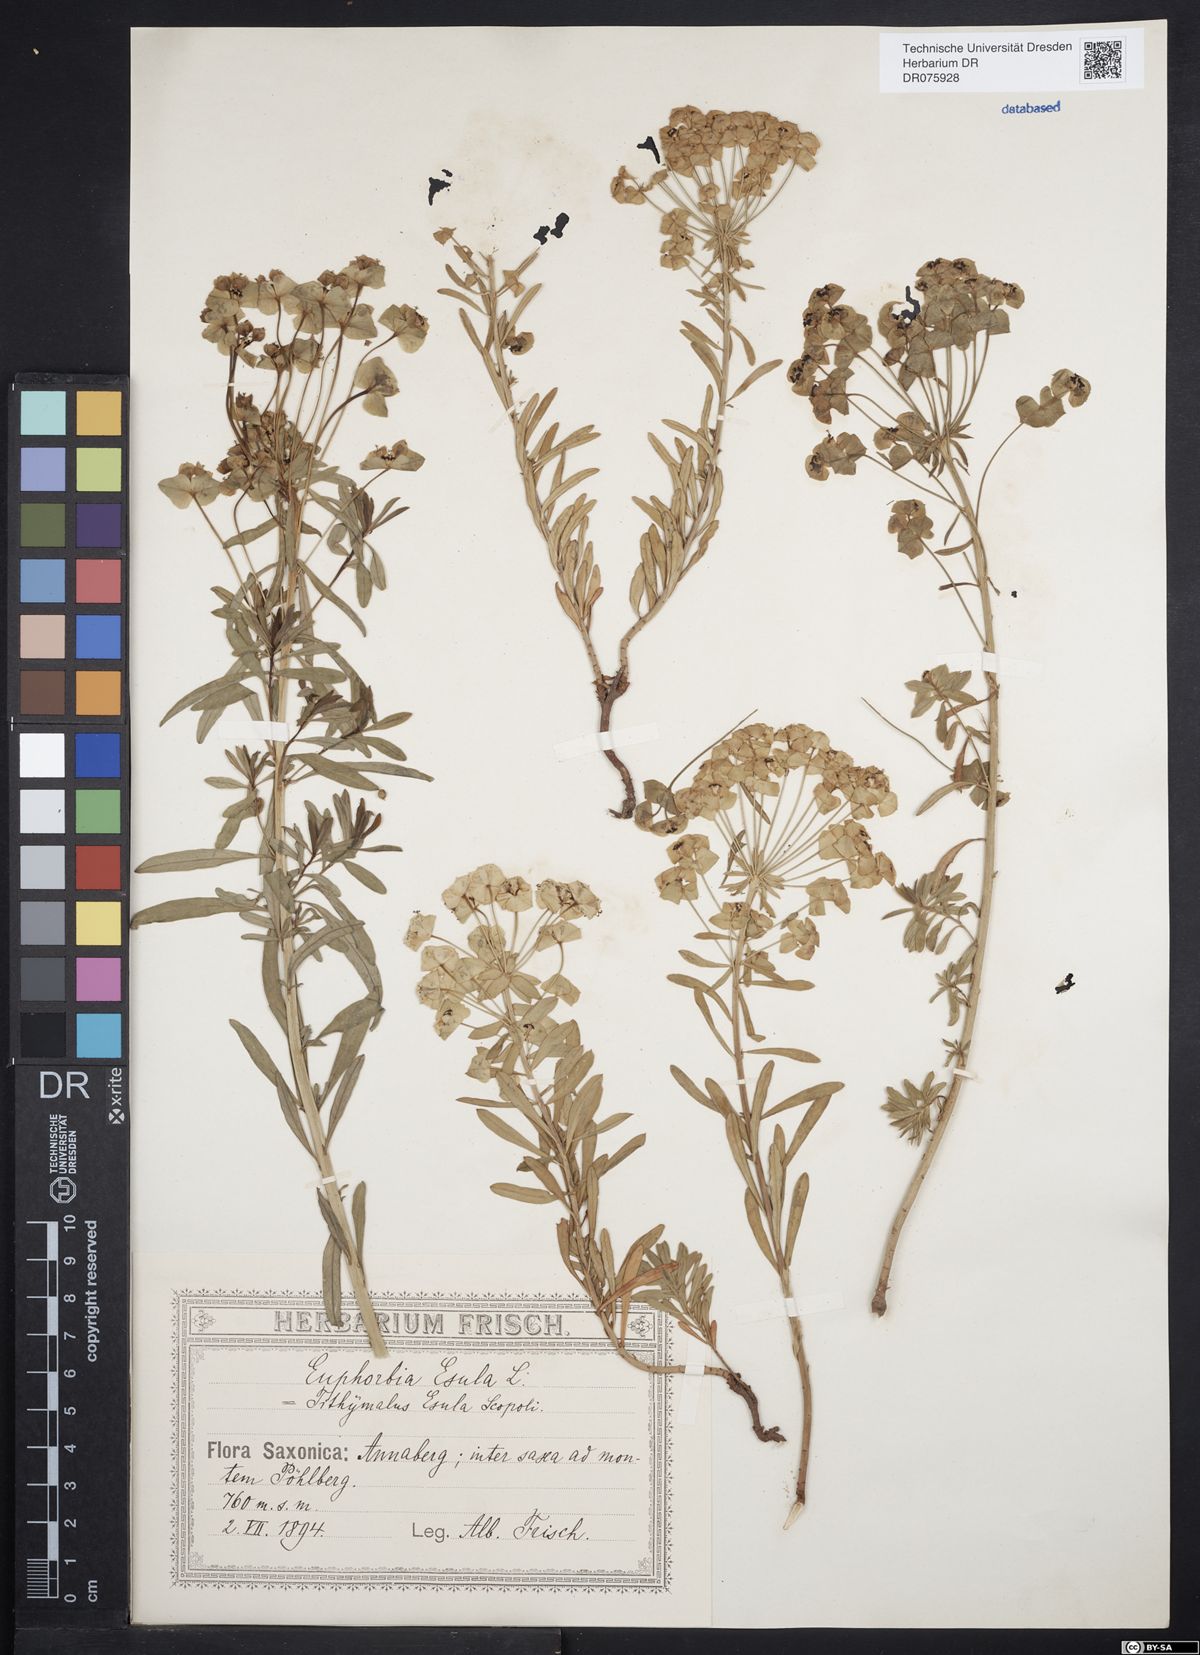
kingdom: Plantae
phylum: Tracheophyta
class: Magnoliopsida
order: Malpighiales
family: Euphorbiaceae
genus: Euphorbia
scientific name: Euphorbia esula
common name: Leafy spurge
